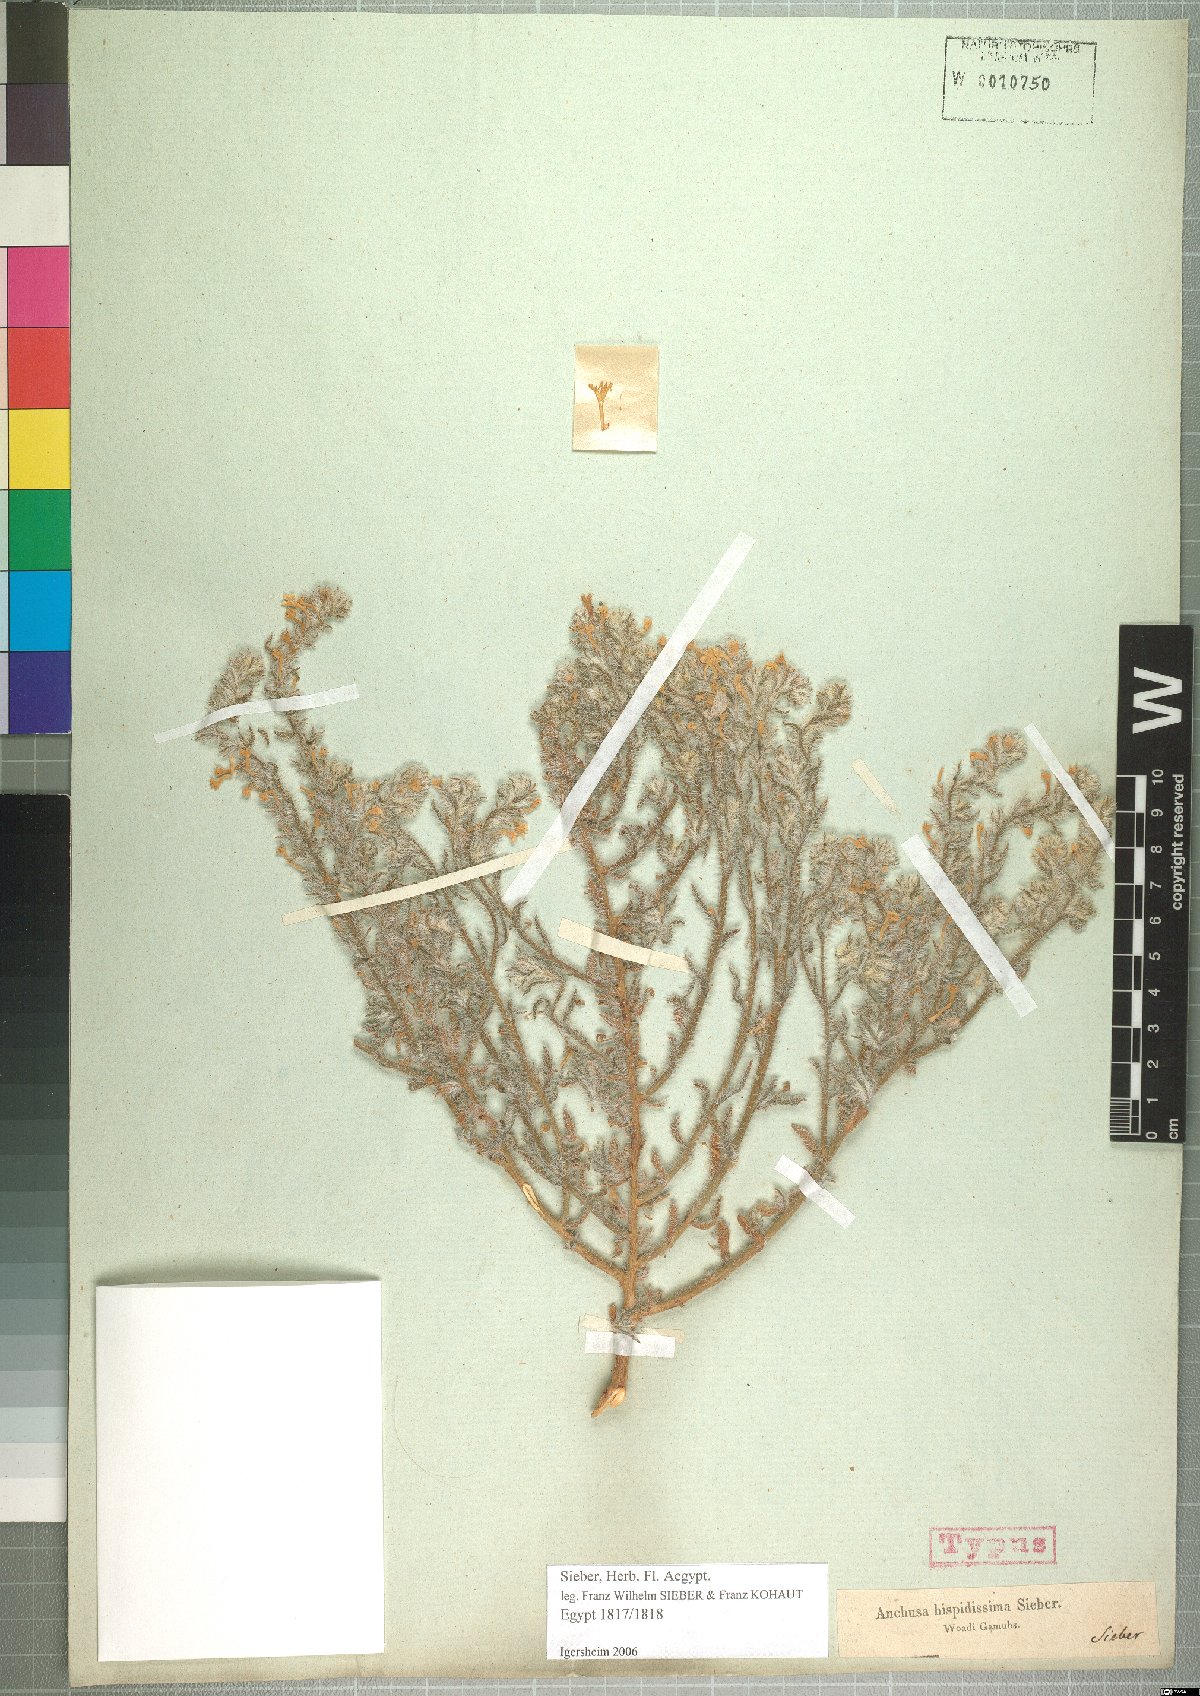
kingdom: Plantae
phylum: Tracheophyta
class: Magnoliopsida
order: Boraginales
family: Boraginaceae
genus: Arnebia
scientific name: Arnebia hispidissima
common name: Arabian-primrose
